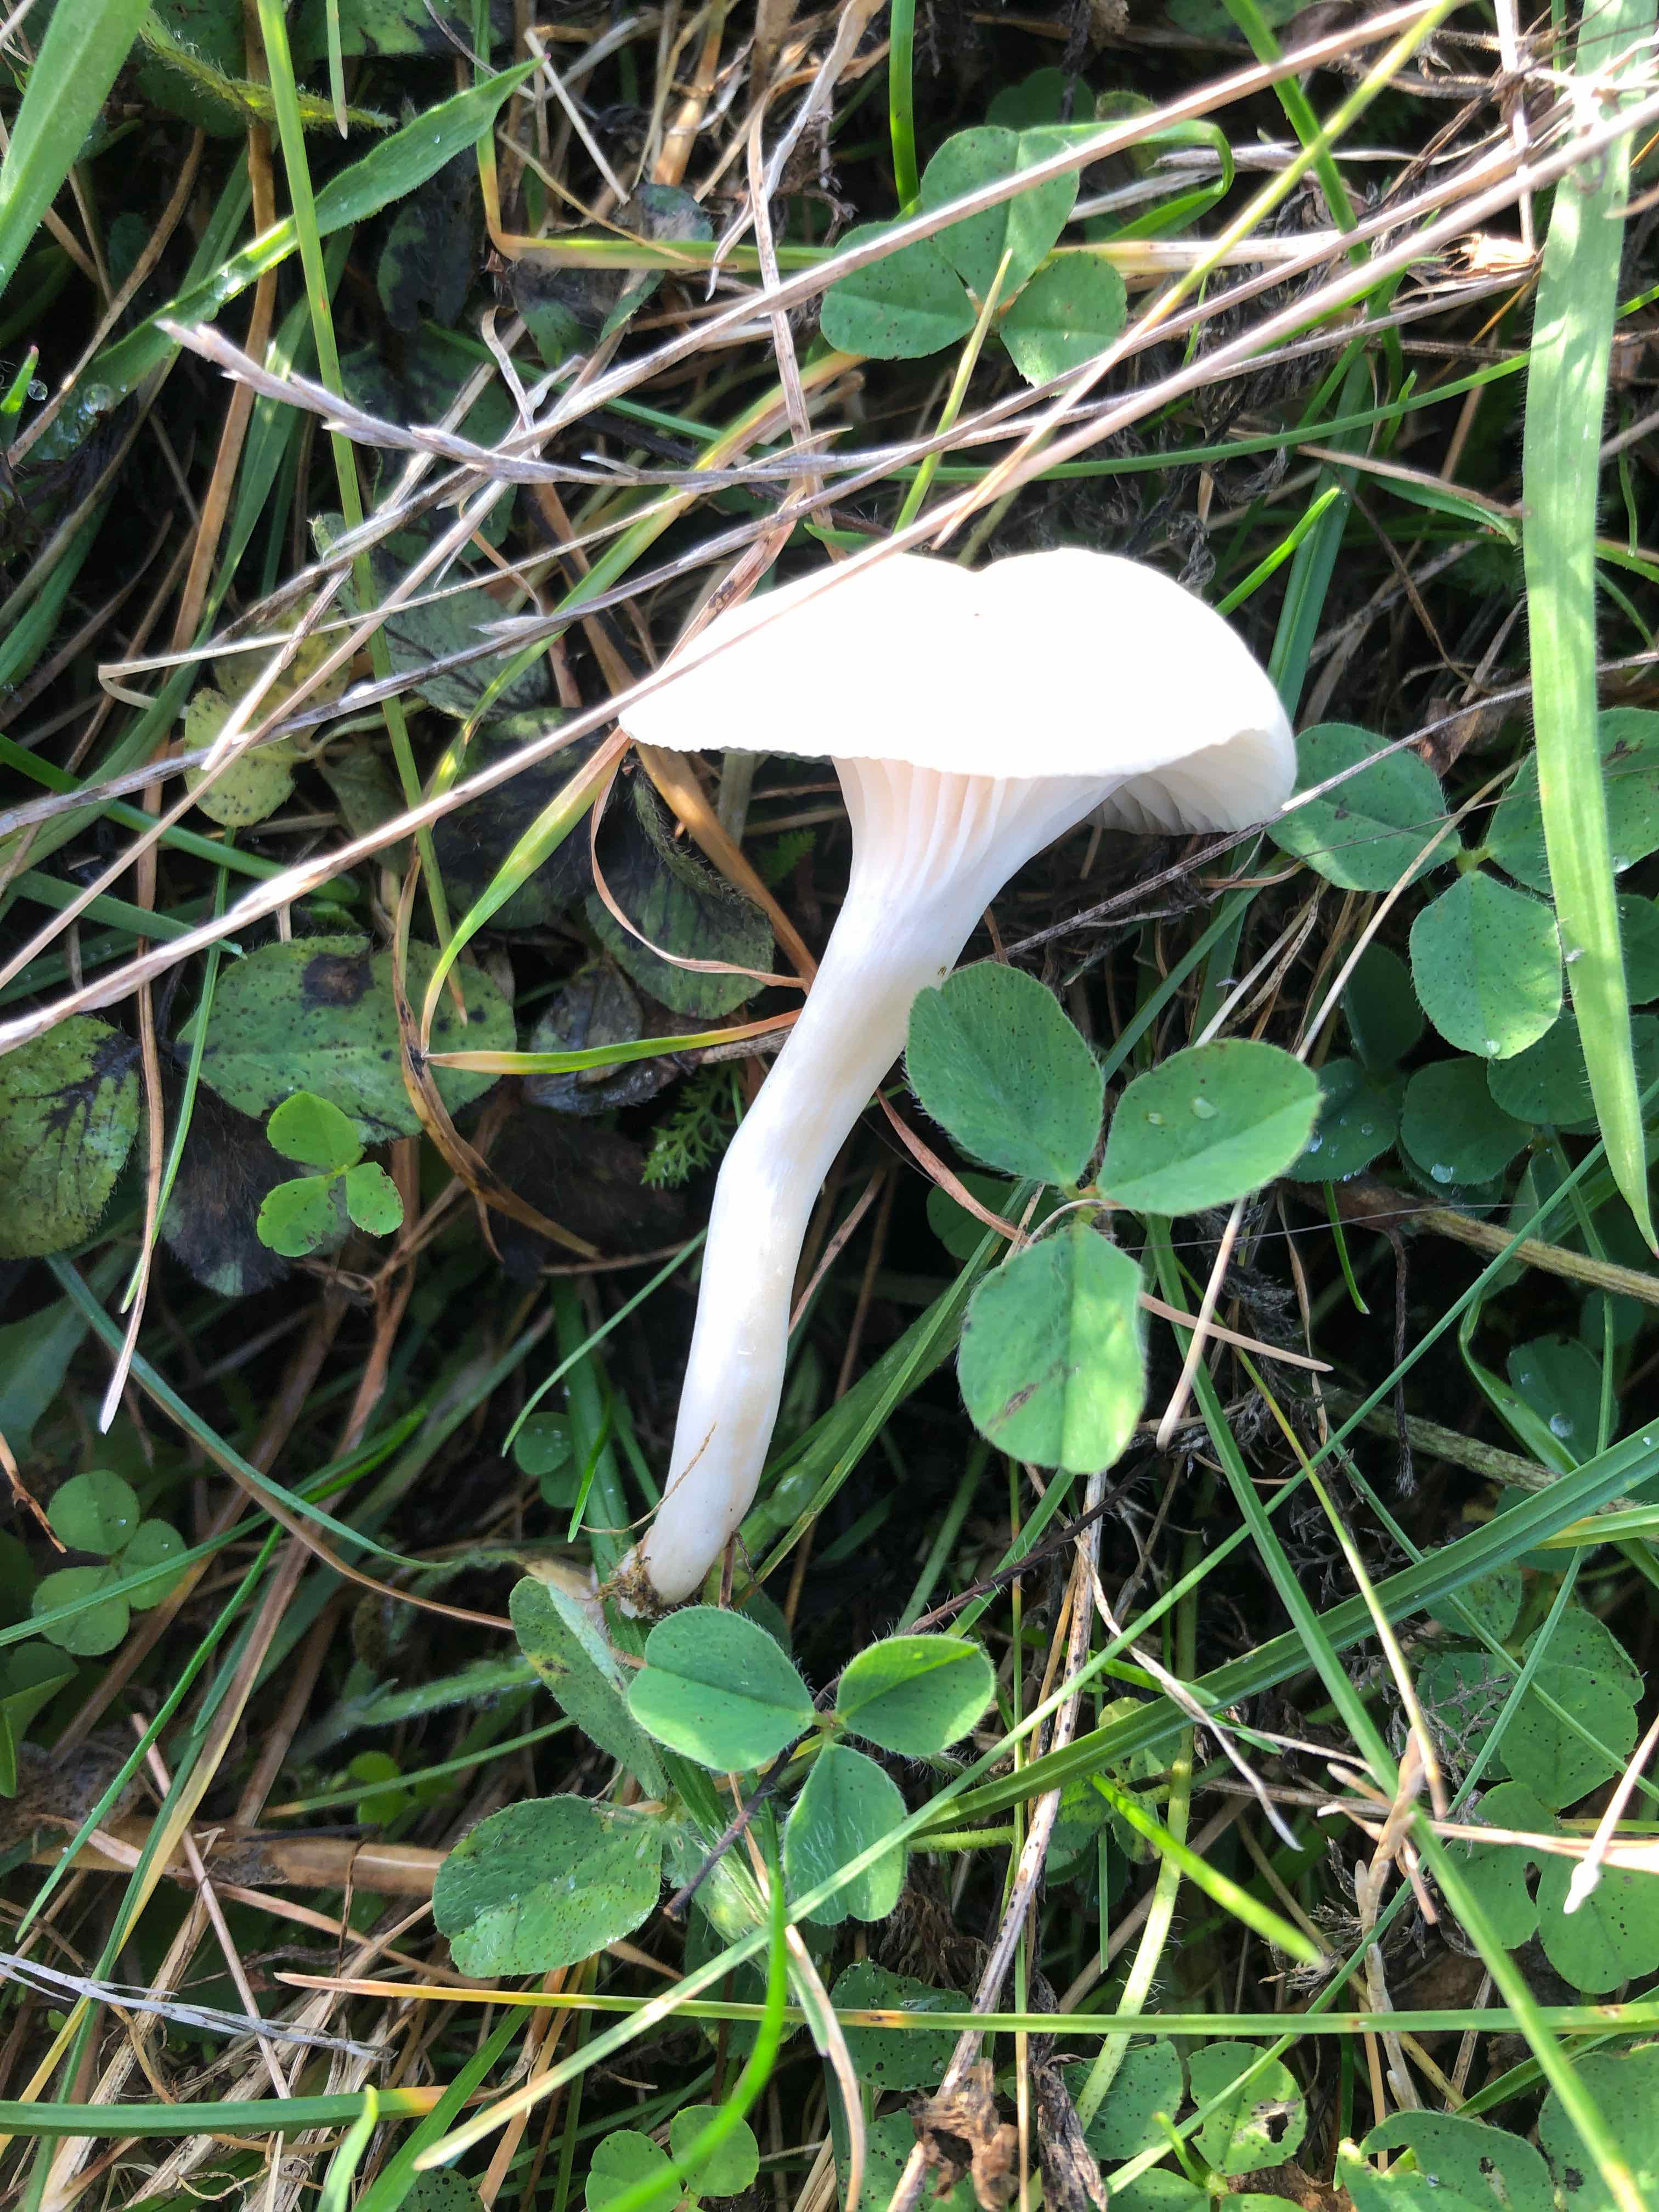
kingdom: Fungi
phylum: Basidiomycota
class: Agaricomycetes
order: Agaricales
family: Hygrophoraceae
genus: Cuphophyllus
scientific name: Cuphophyllus
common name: vokshat
